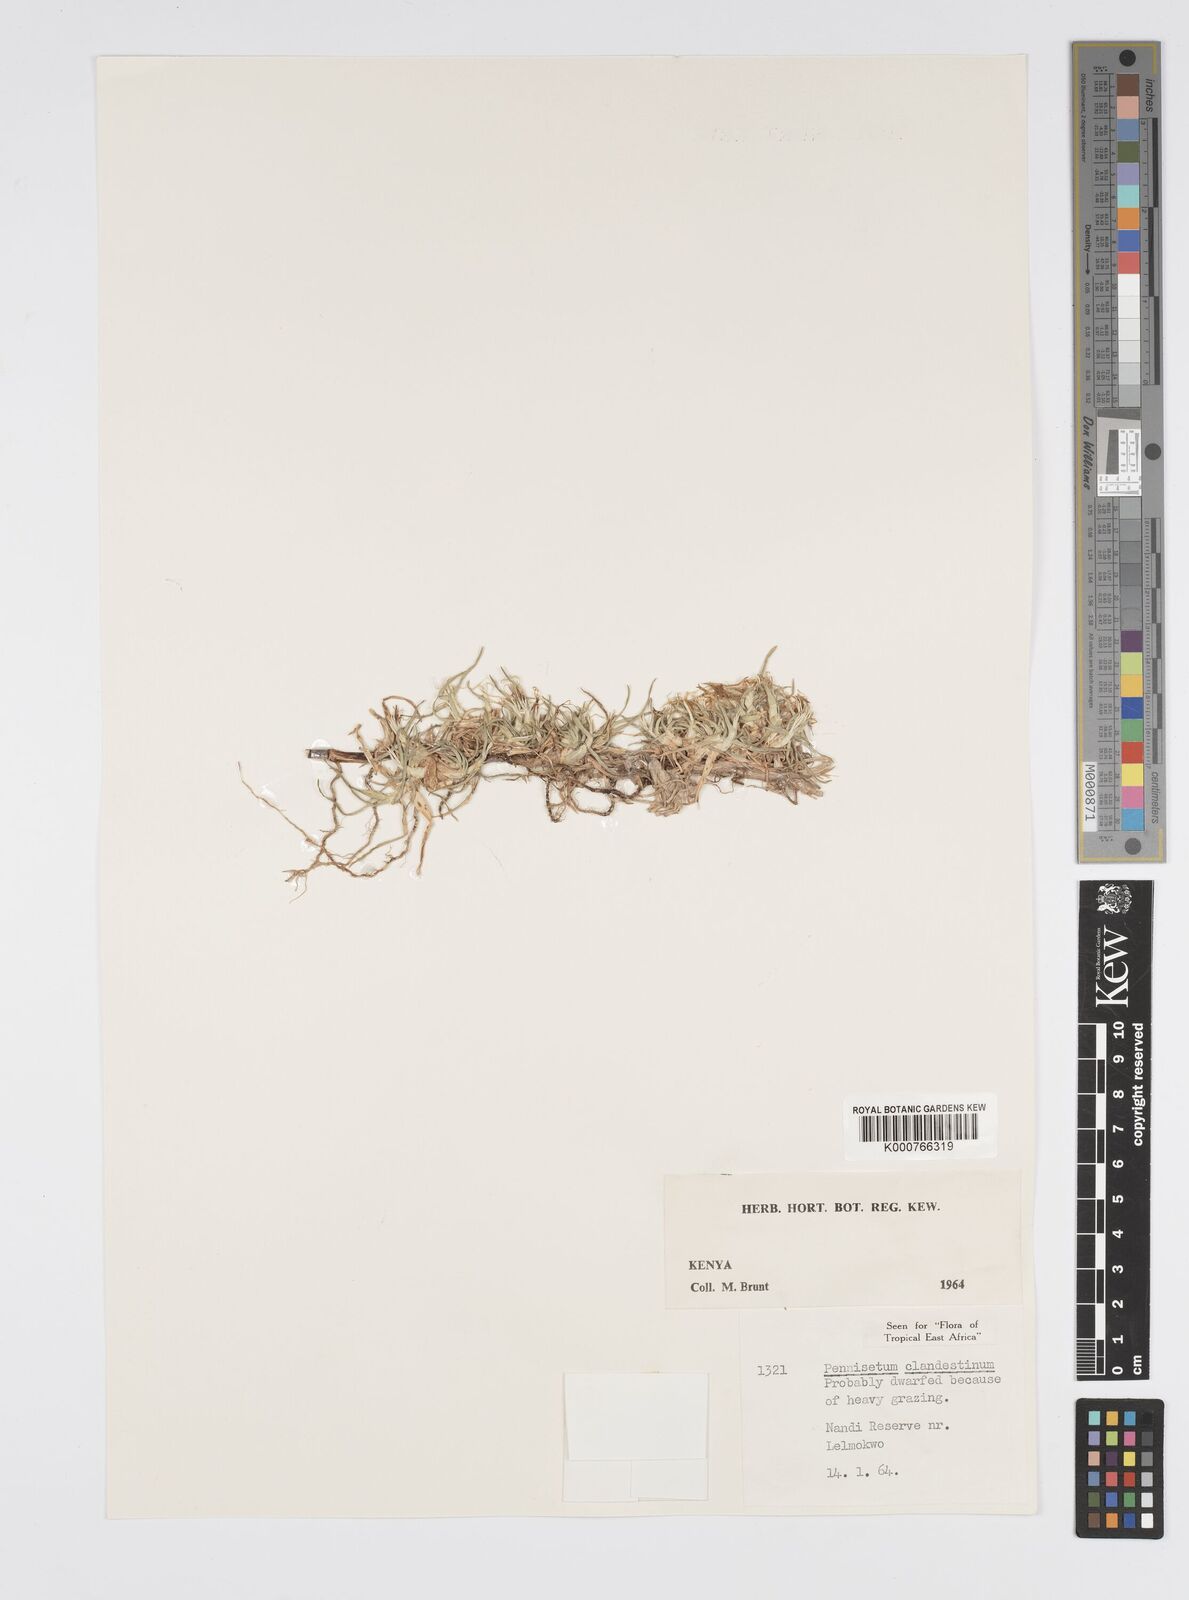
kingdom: Plantae
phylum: Tracheophyta
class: Liliopsida
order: Poales
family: Poaceae
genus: Cenchrus
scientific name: Cenchrus clandestinus
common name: Kikuyugrass
